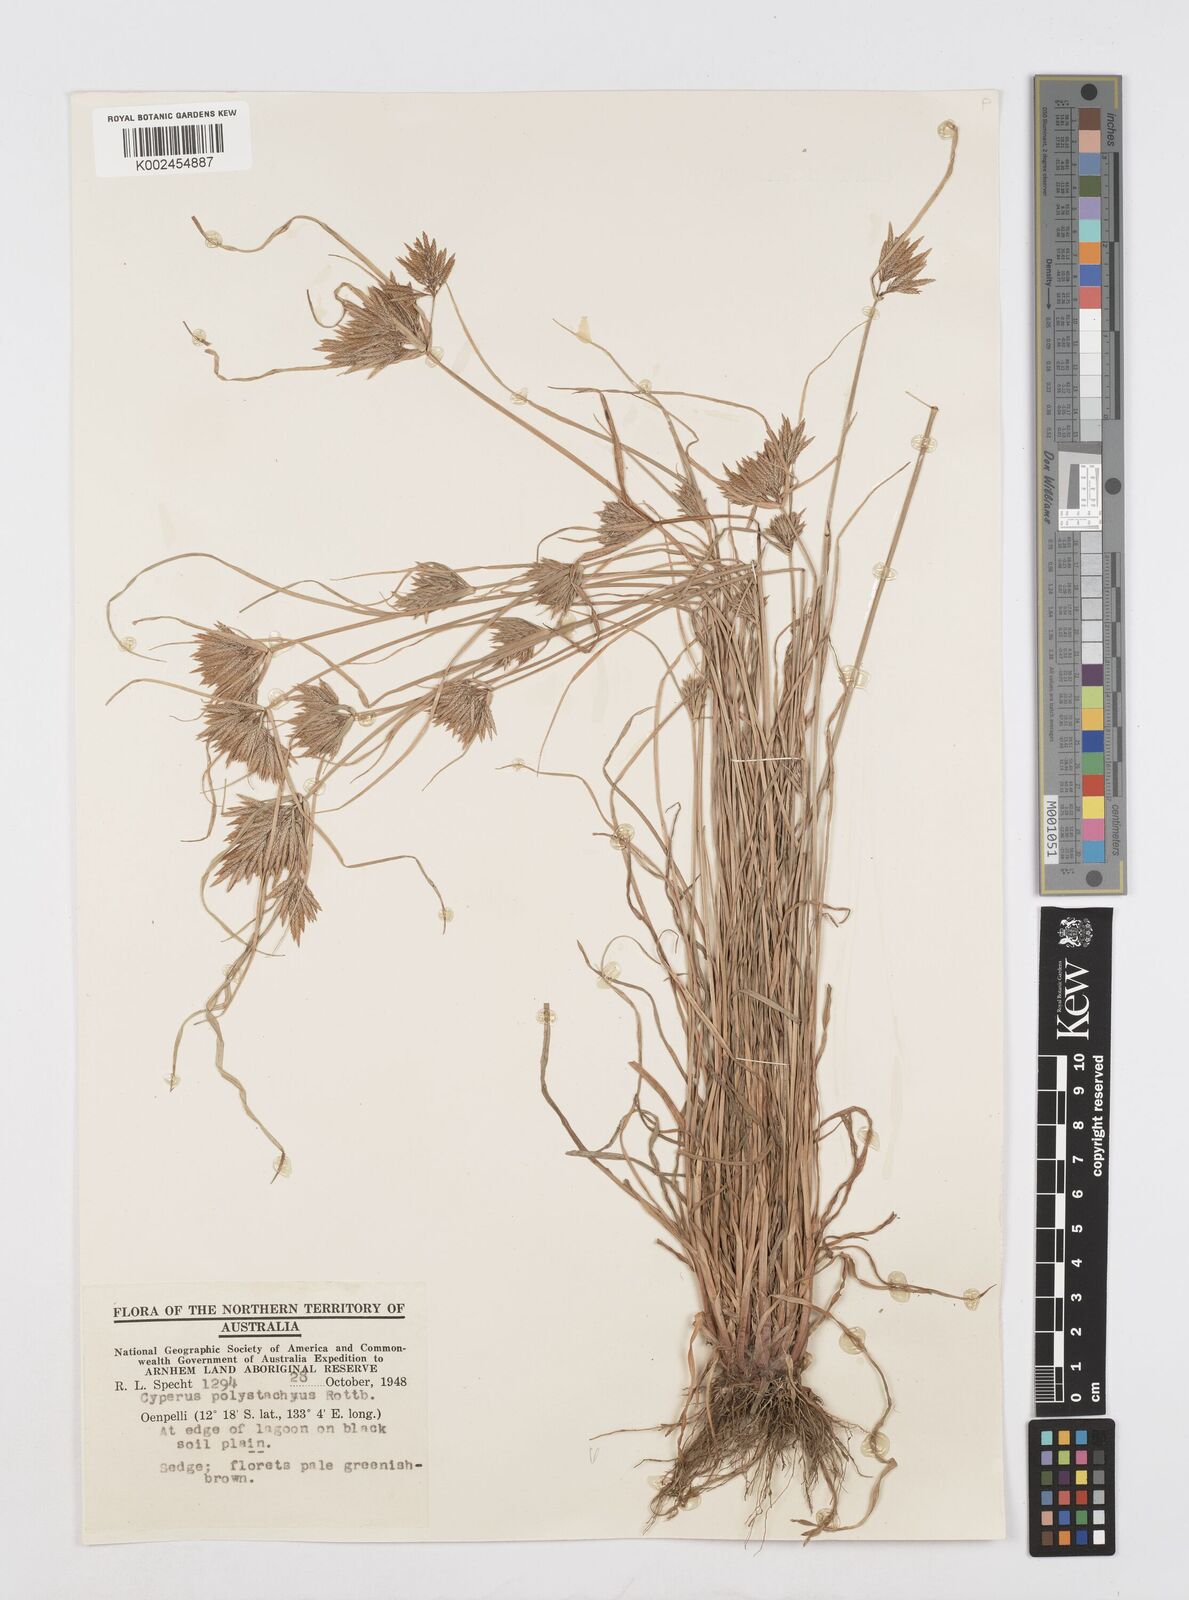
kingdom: Plantae
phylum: Tracheophyta
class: Liliopsida
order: Poales
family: Cyperaceae
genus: Cyperus
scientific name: Cyperus polystachyos
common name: Bunchy flat sedge
